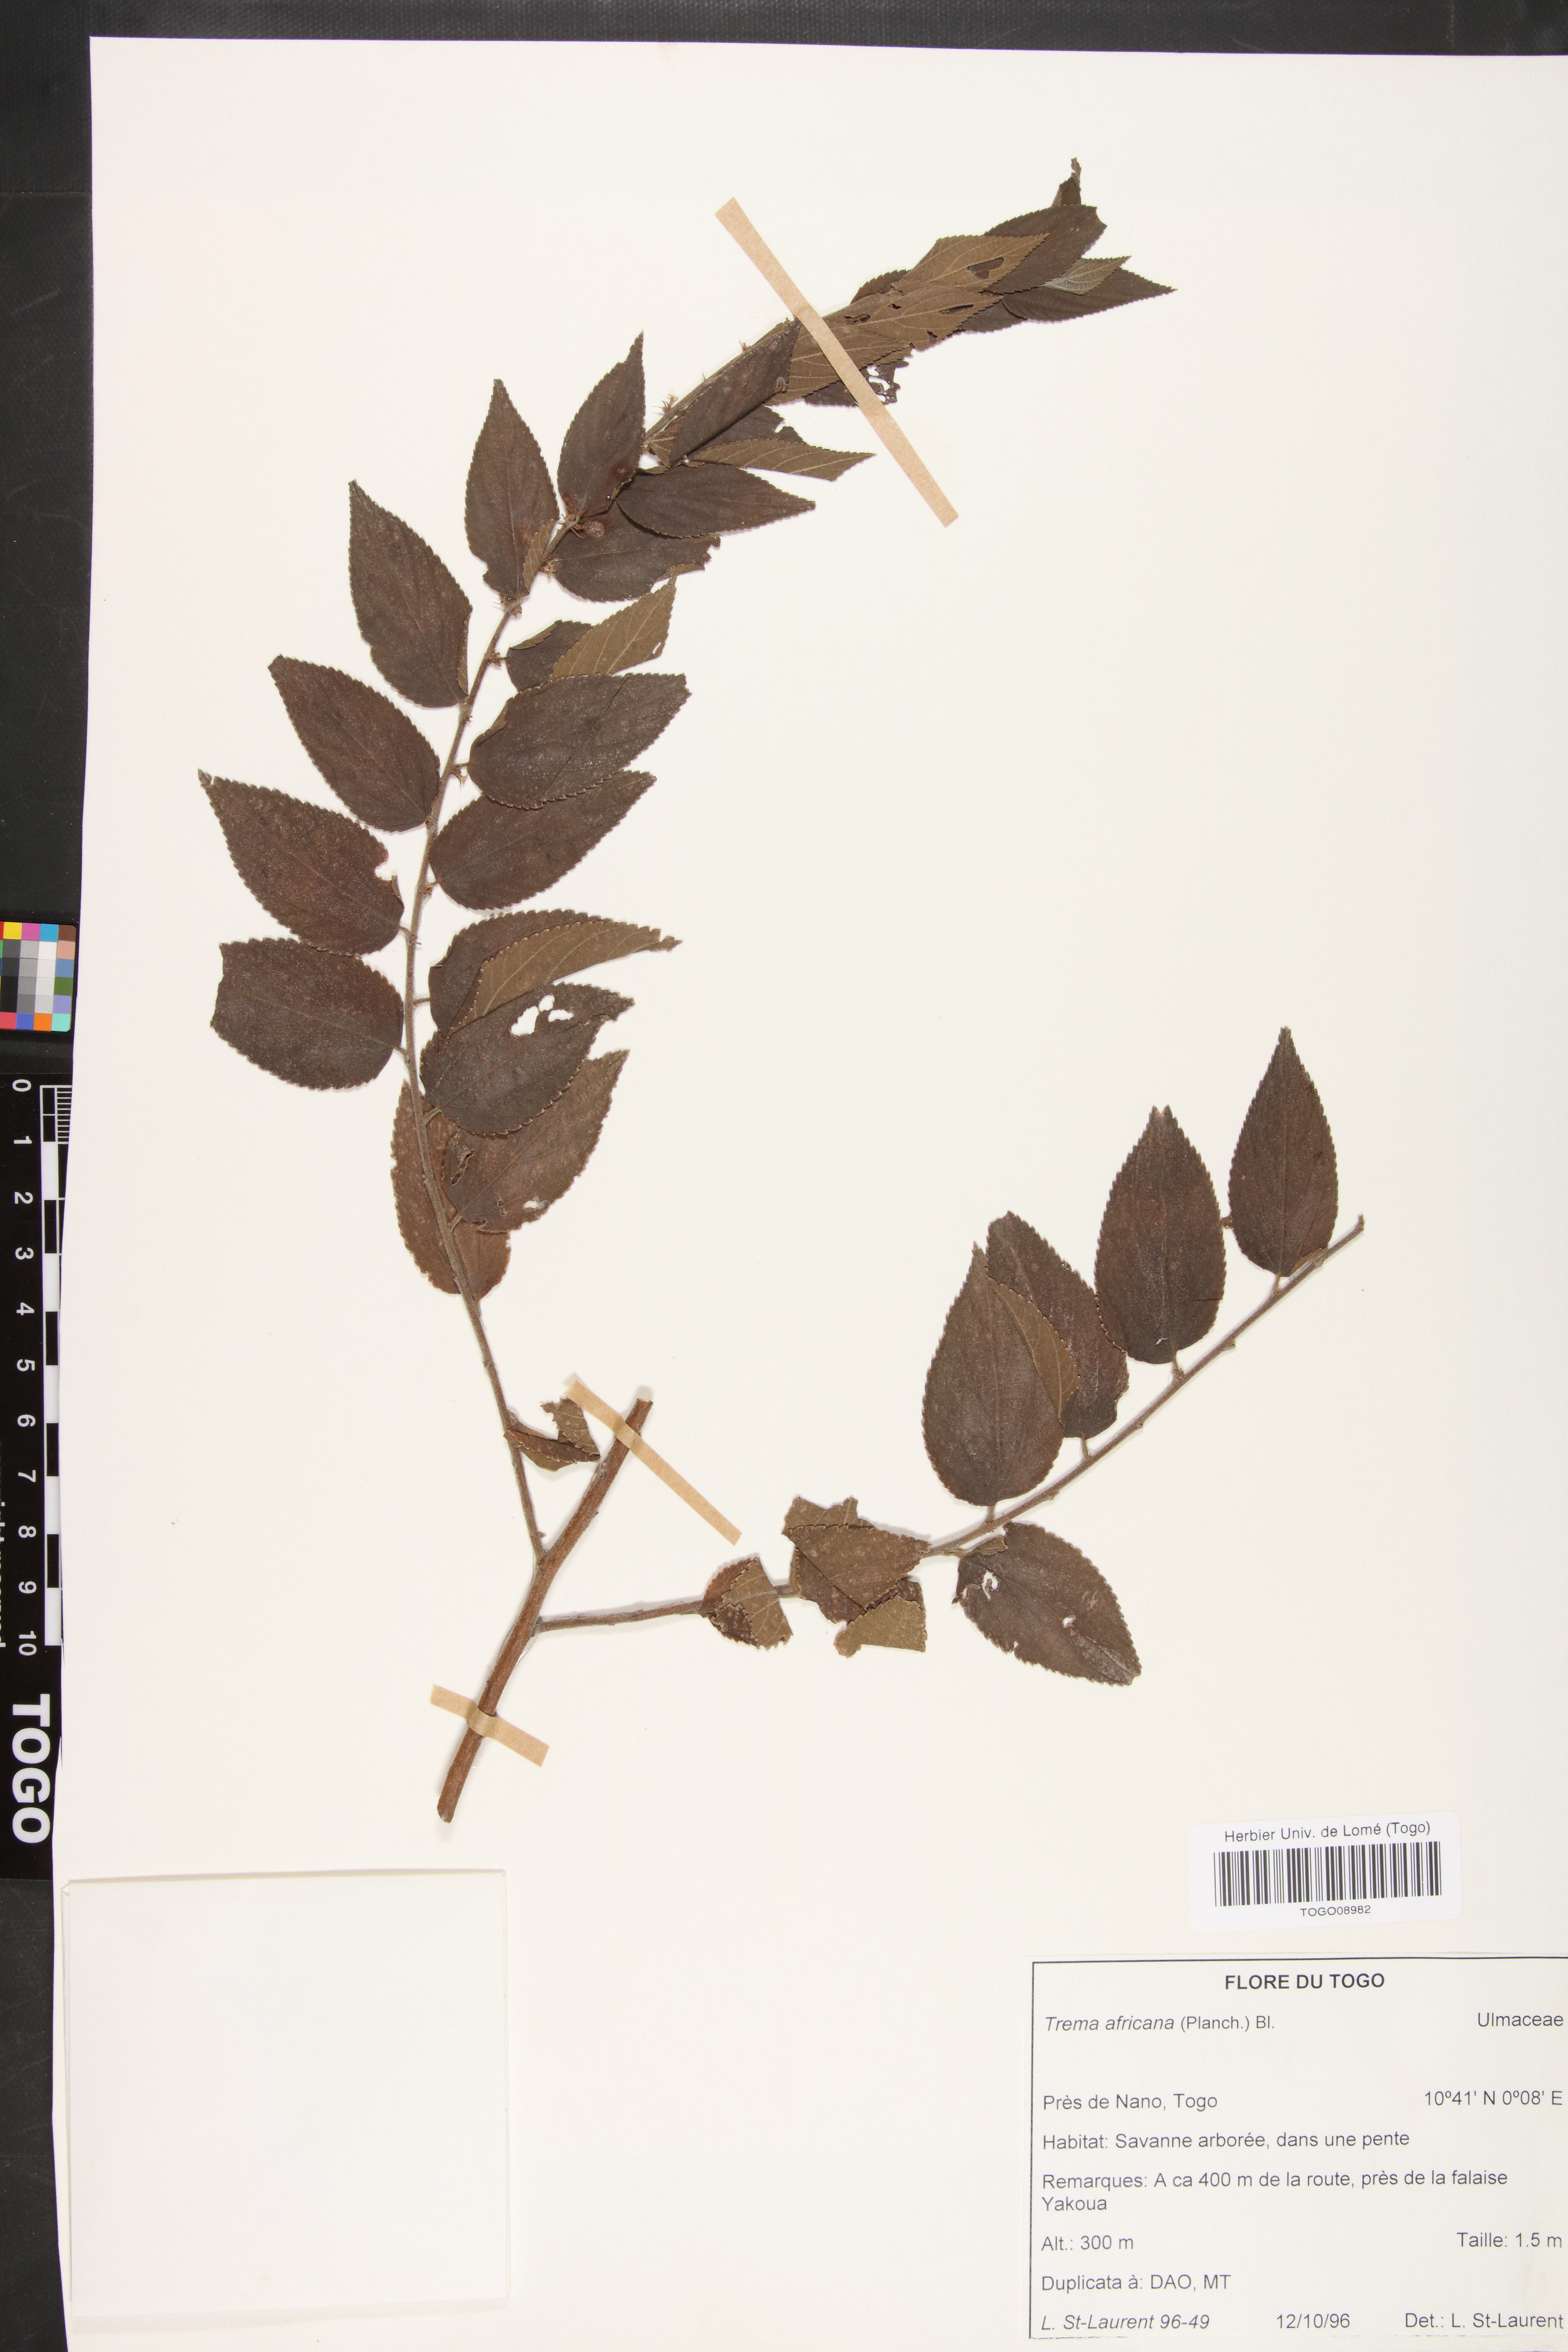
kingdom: Plantae
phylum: Tracheophyta
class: Magnoliopsida
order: Rosales
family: Cannabaceae
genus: Trema
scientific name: Trema orientale
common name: Indian charcoal tree
